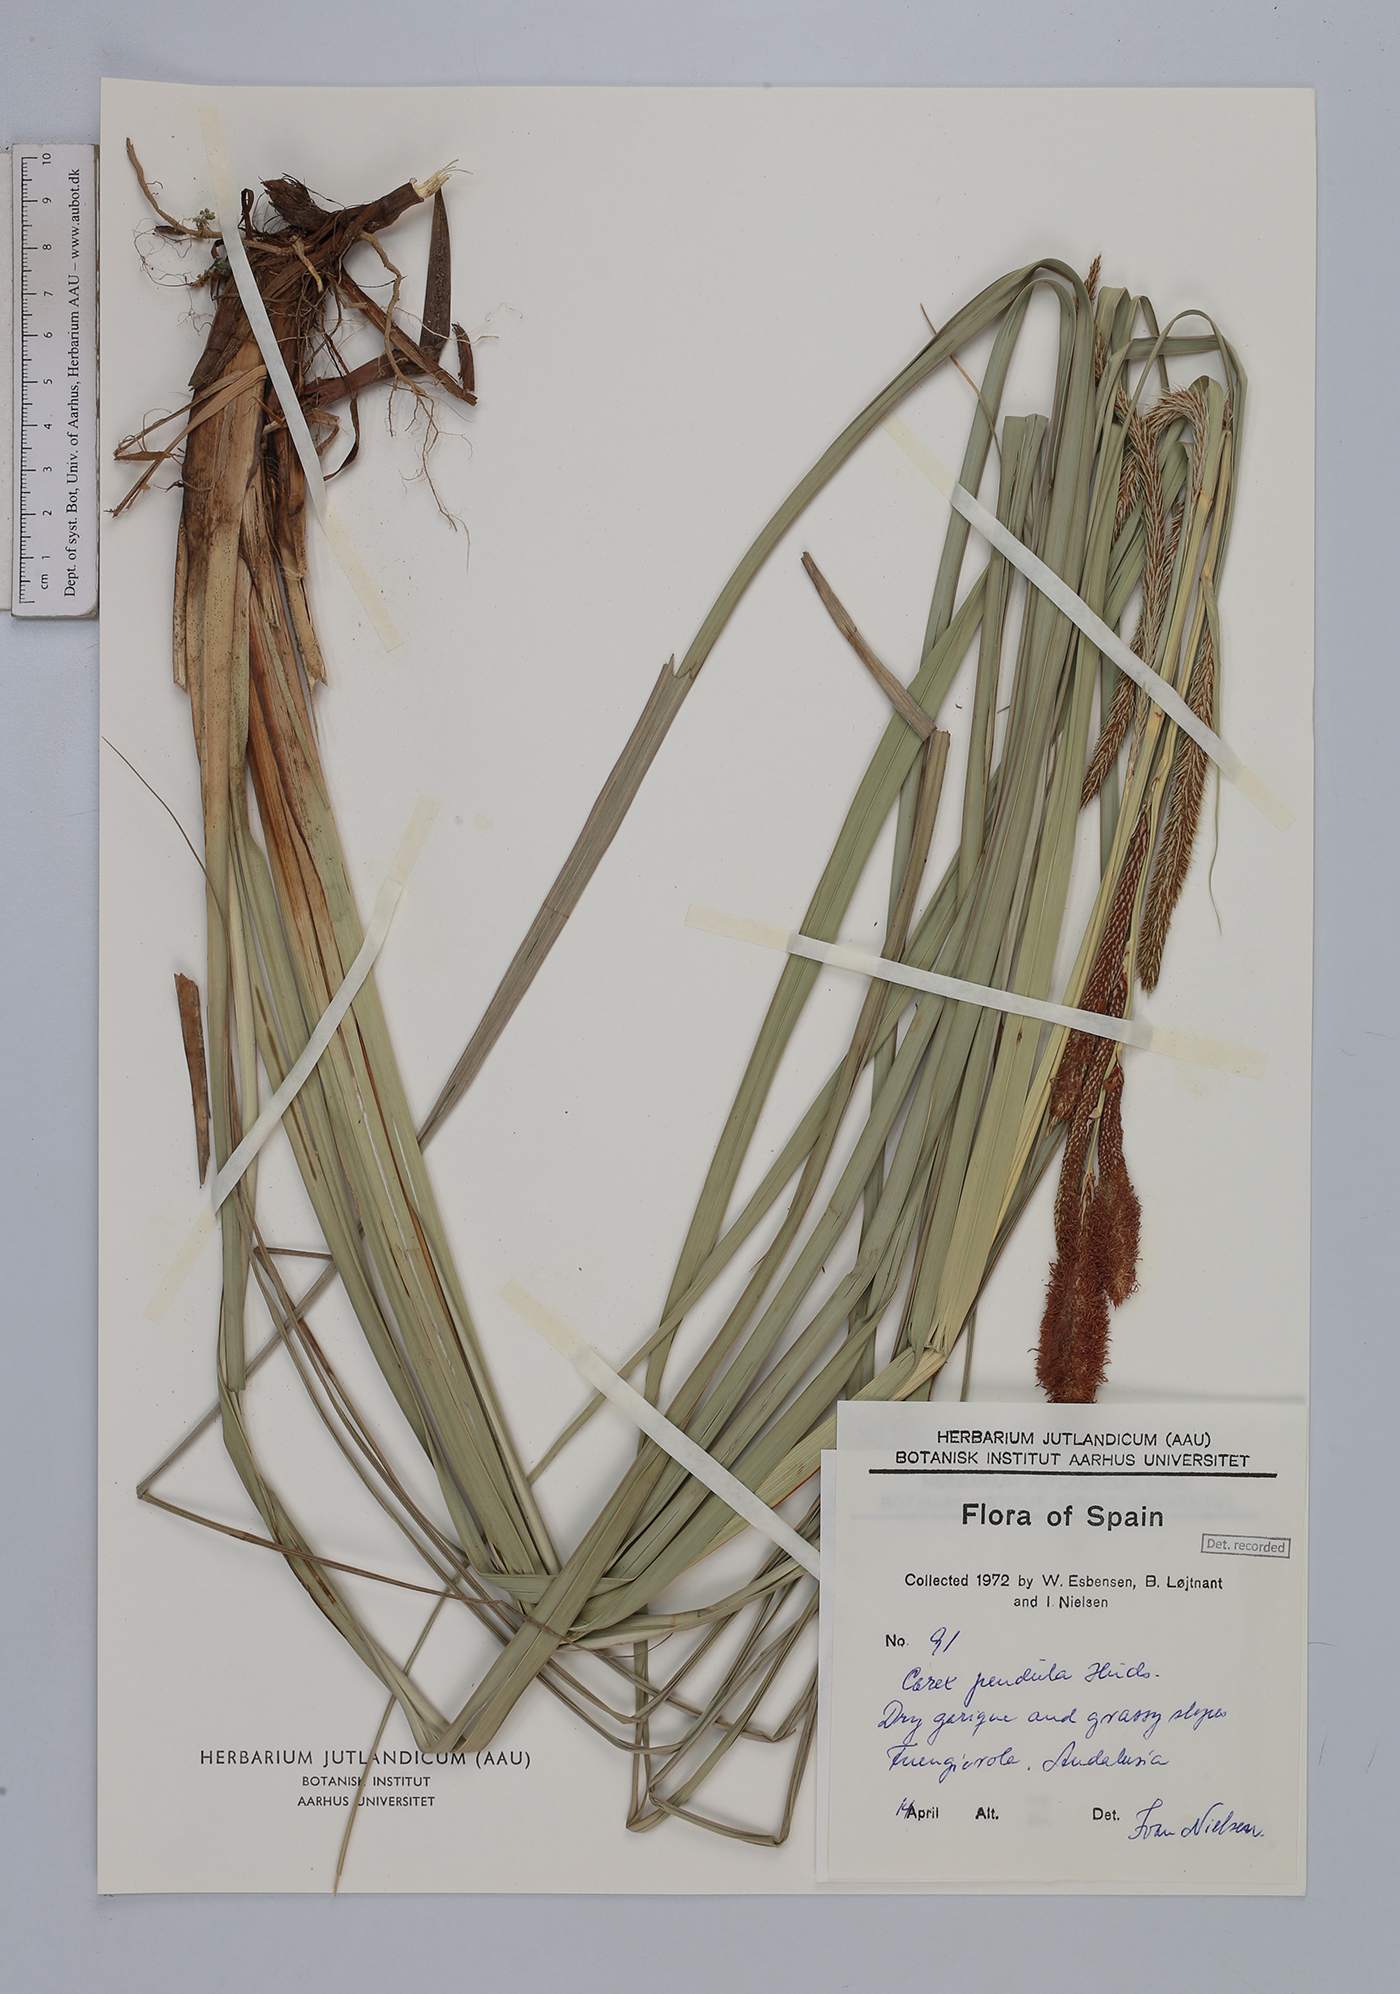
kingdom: Plantae
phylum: Tracheophyta
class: Liliopsida
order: Poales
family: Cyperaceae
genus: Carex
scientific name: Carex pendula
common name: Pendulous sedge
